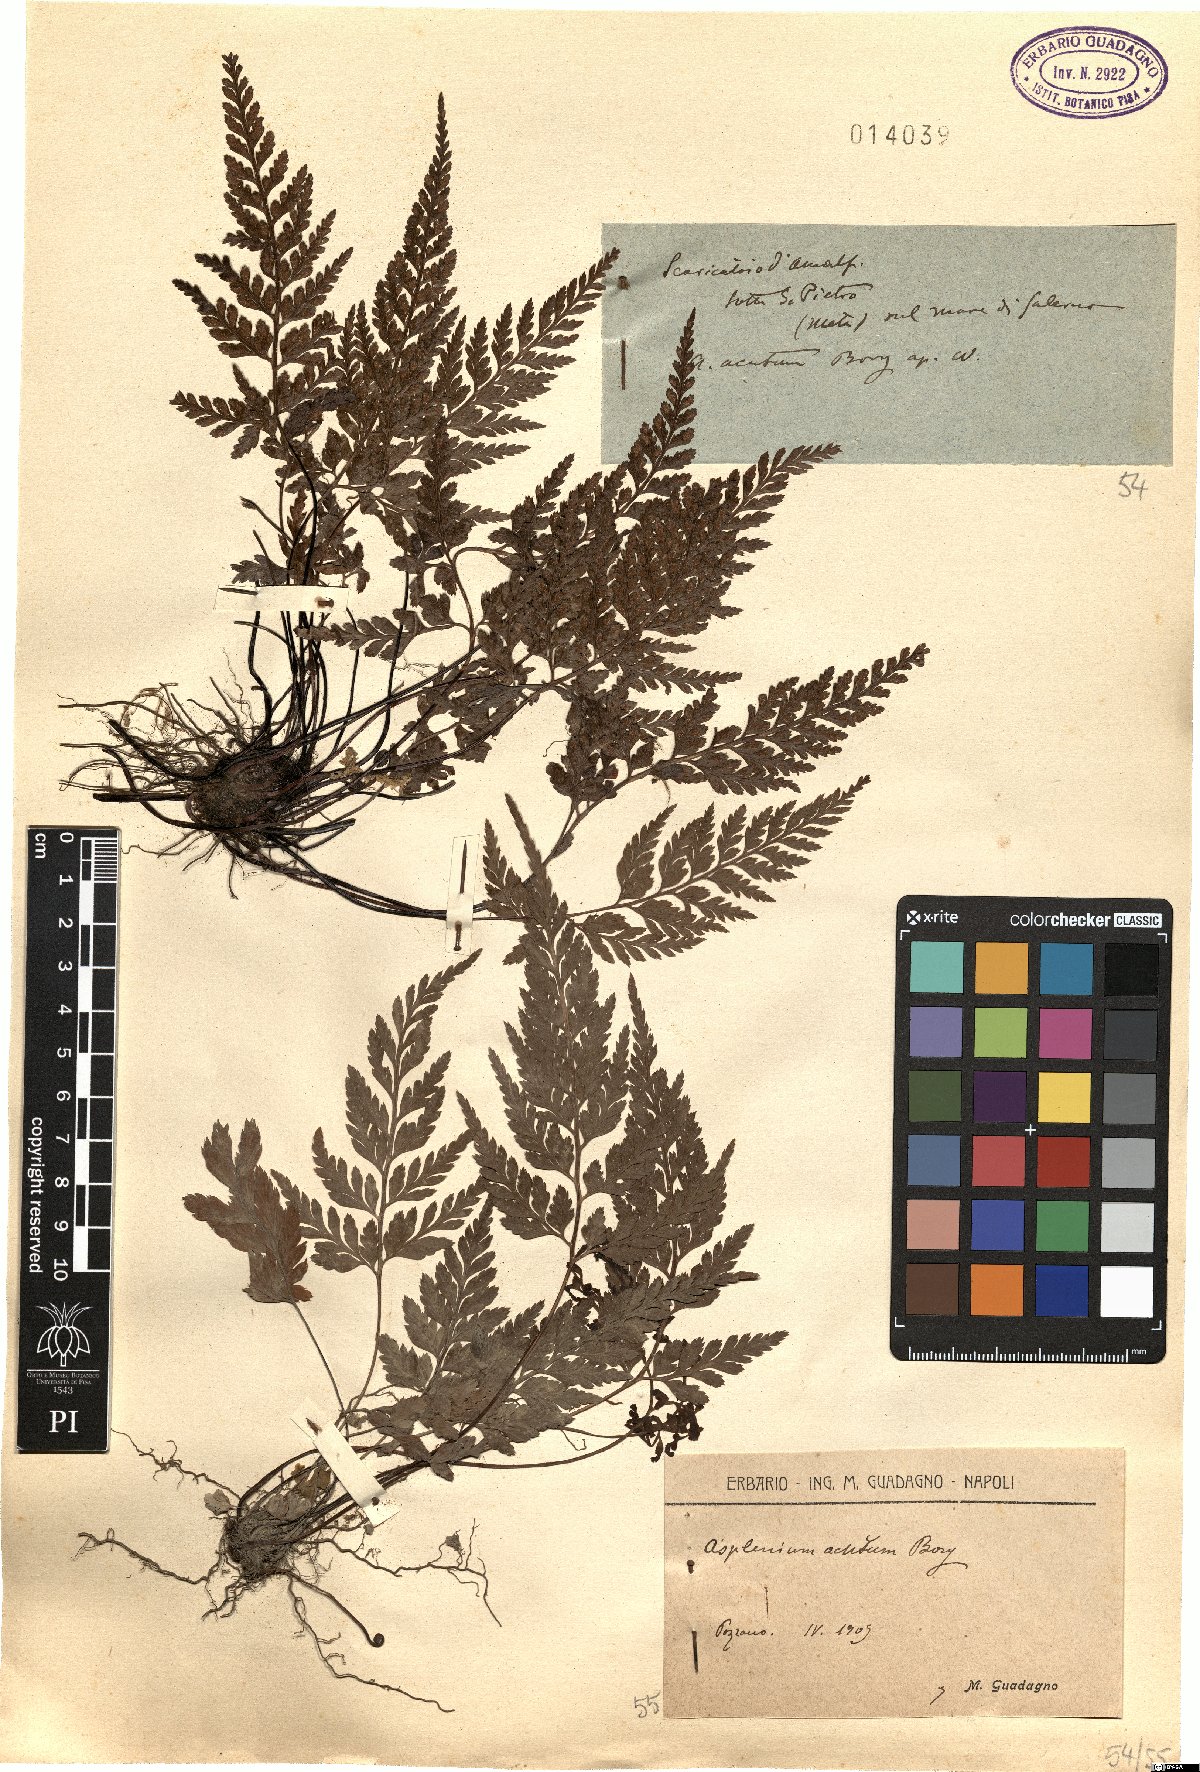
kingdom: Plantae
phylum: Tracheophyta
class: Polypodiopsida
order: Polypodiales
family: Aspleniaceae
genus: Asplenium
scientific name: Asplenium onopteris
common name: Irish spleenwort
